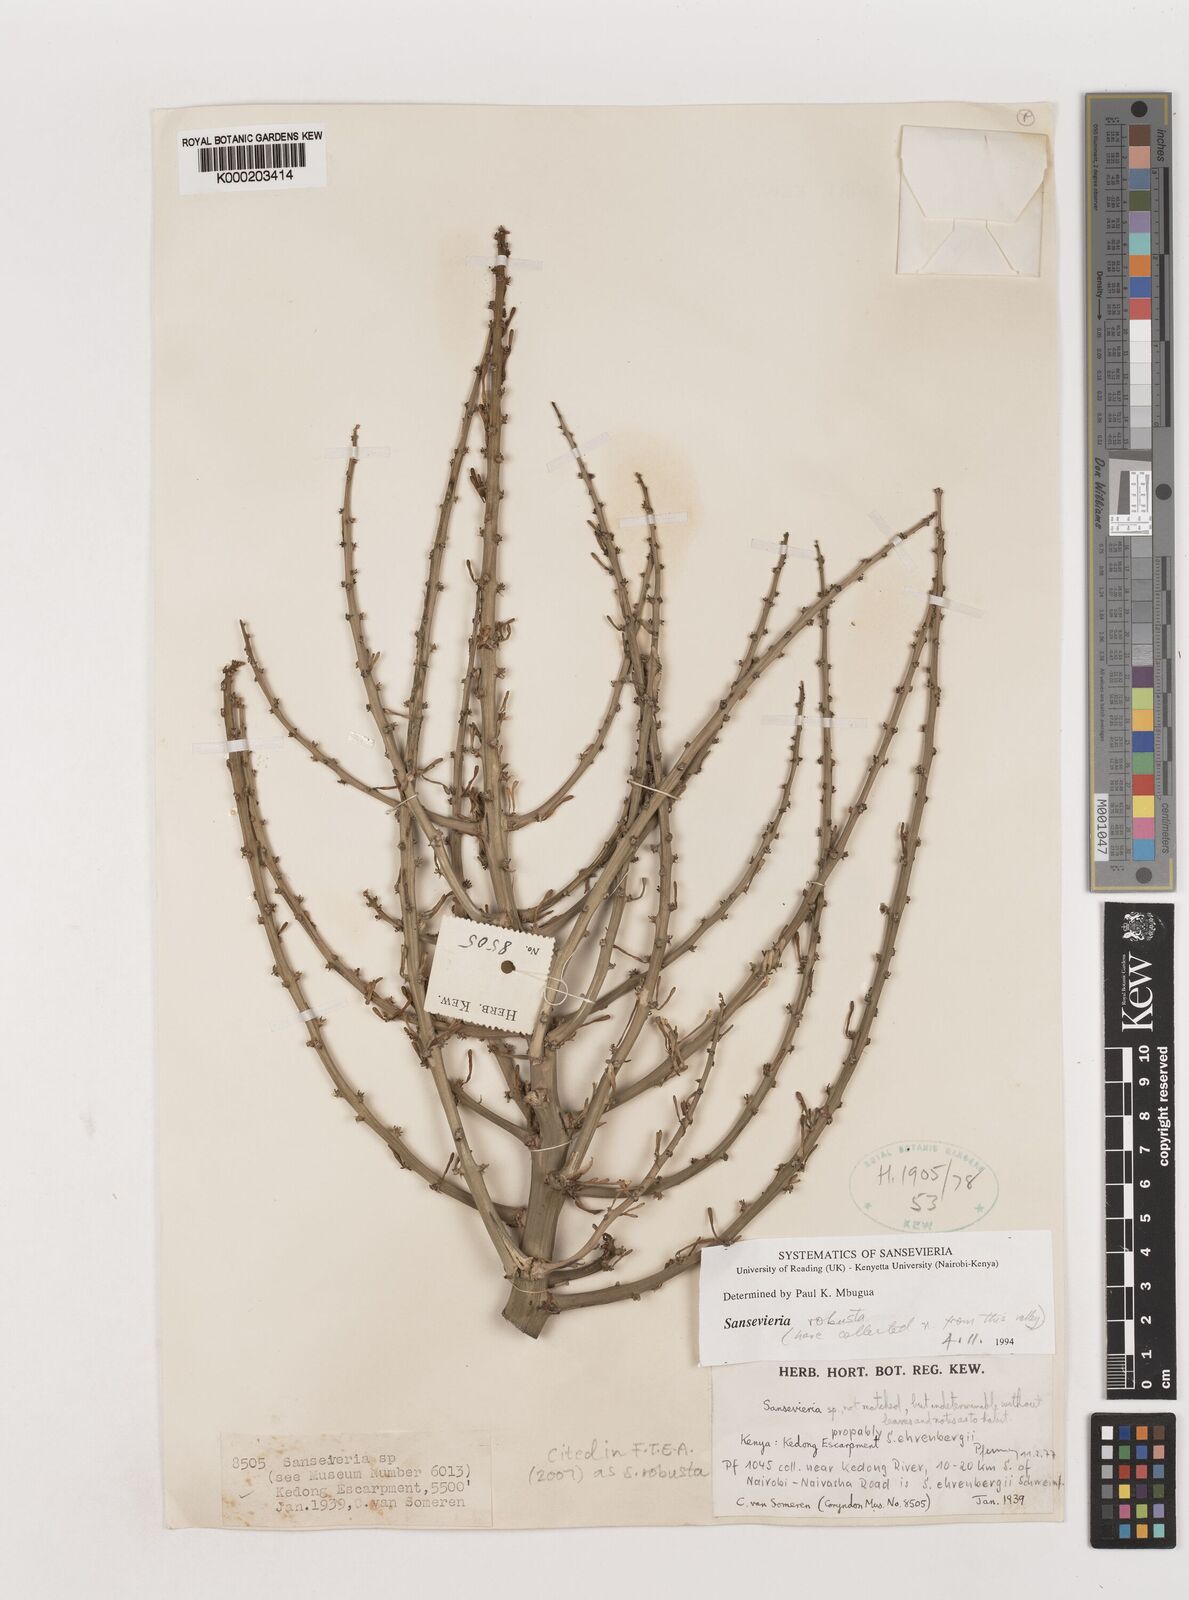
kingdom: Plantae
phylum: Tracheophyta
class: Liliopsida
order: Asparagales
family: Asparagaceae
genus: Dracaena
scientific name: Dracaena perrotii
